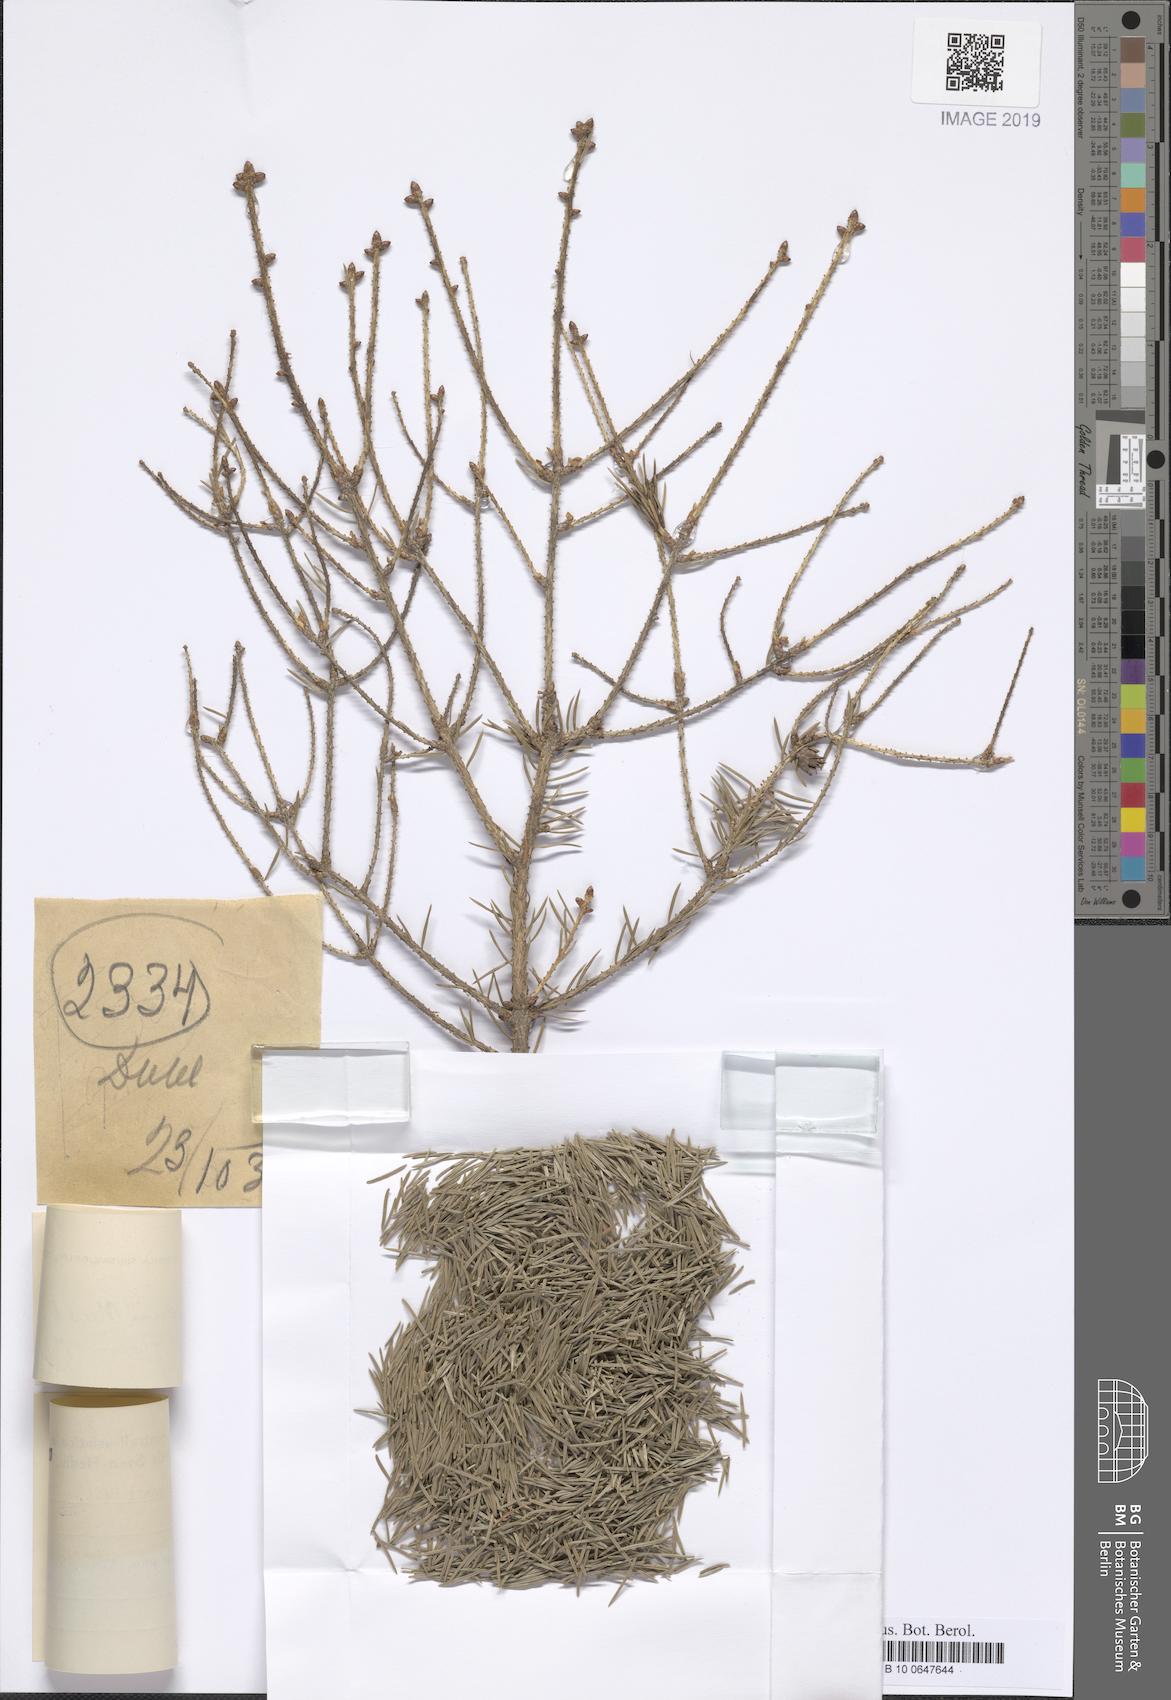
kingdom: Plantae
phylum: Tracheophyta
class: Pinopsida
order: Pinales
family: Pinaceae
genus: Picea
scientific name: Picea wilsonii
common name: Wilson spruce
